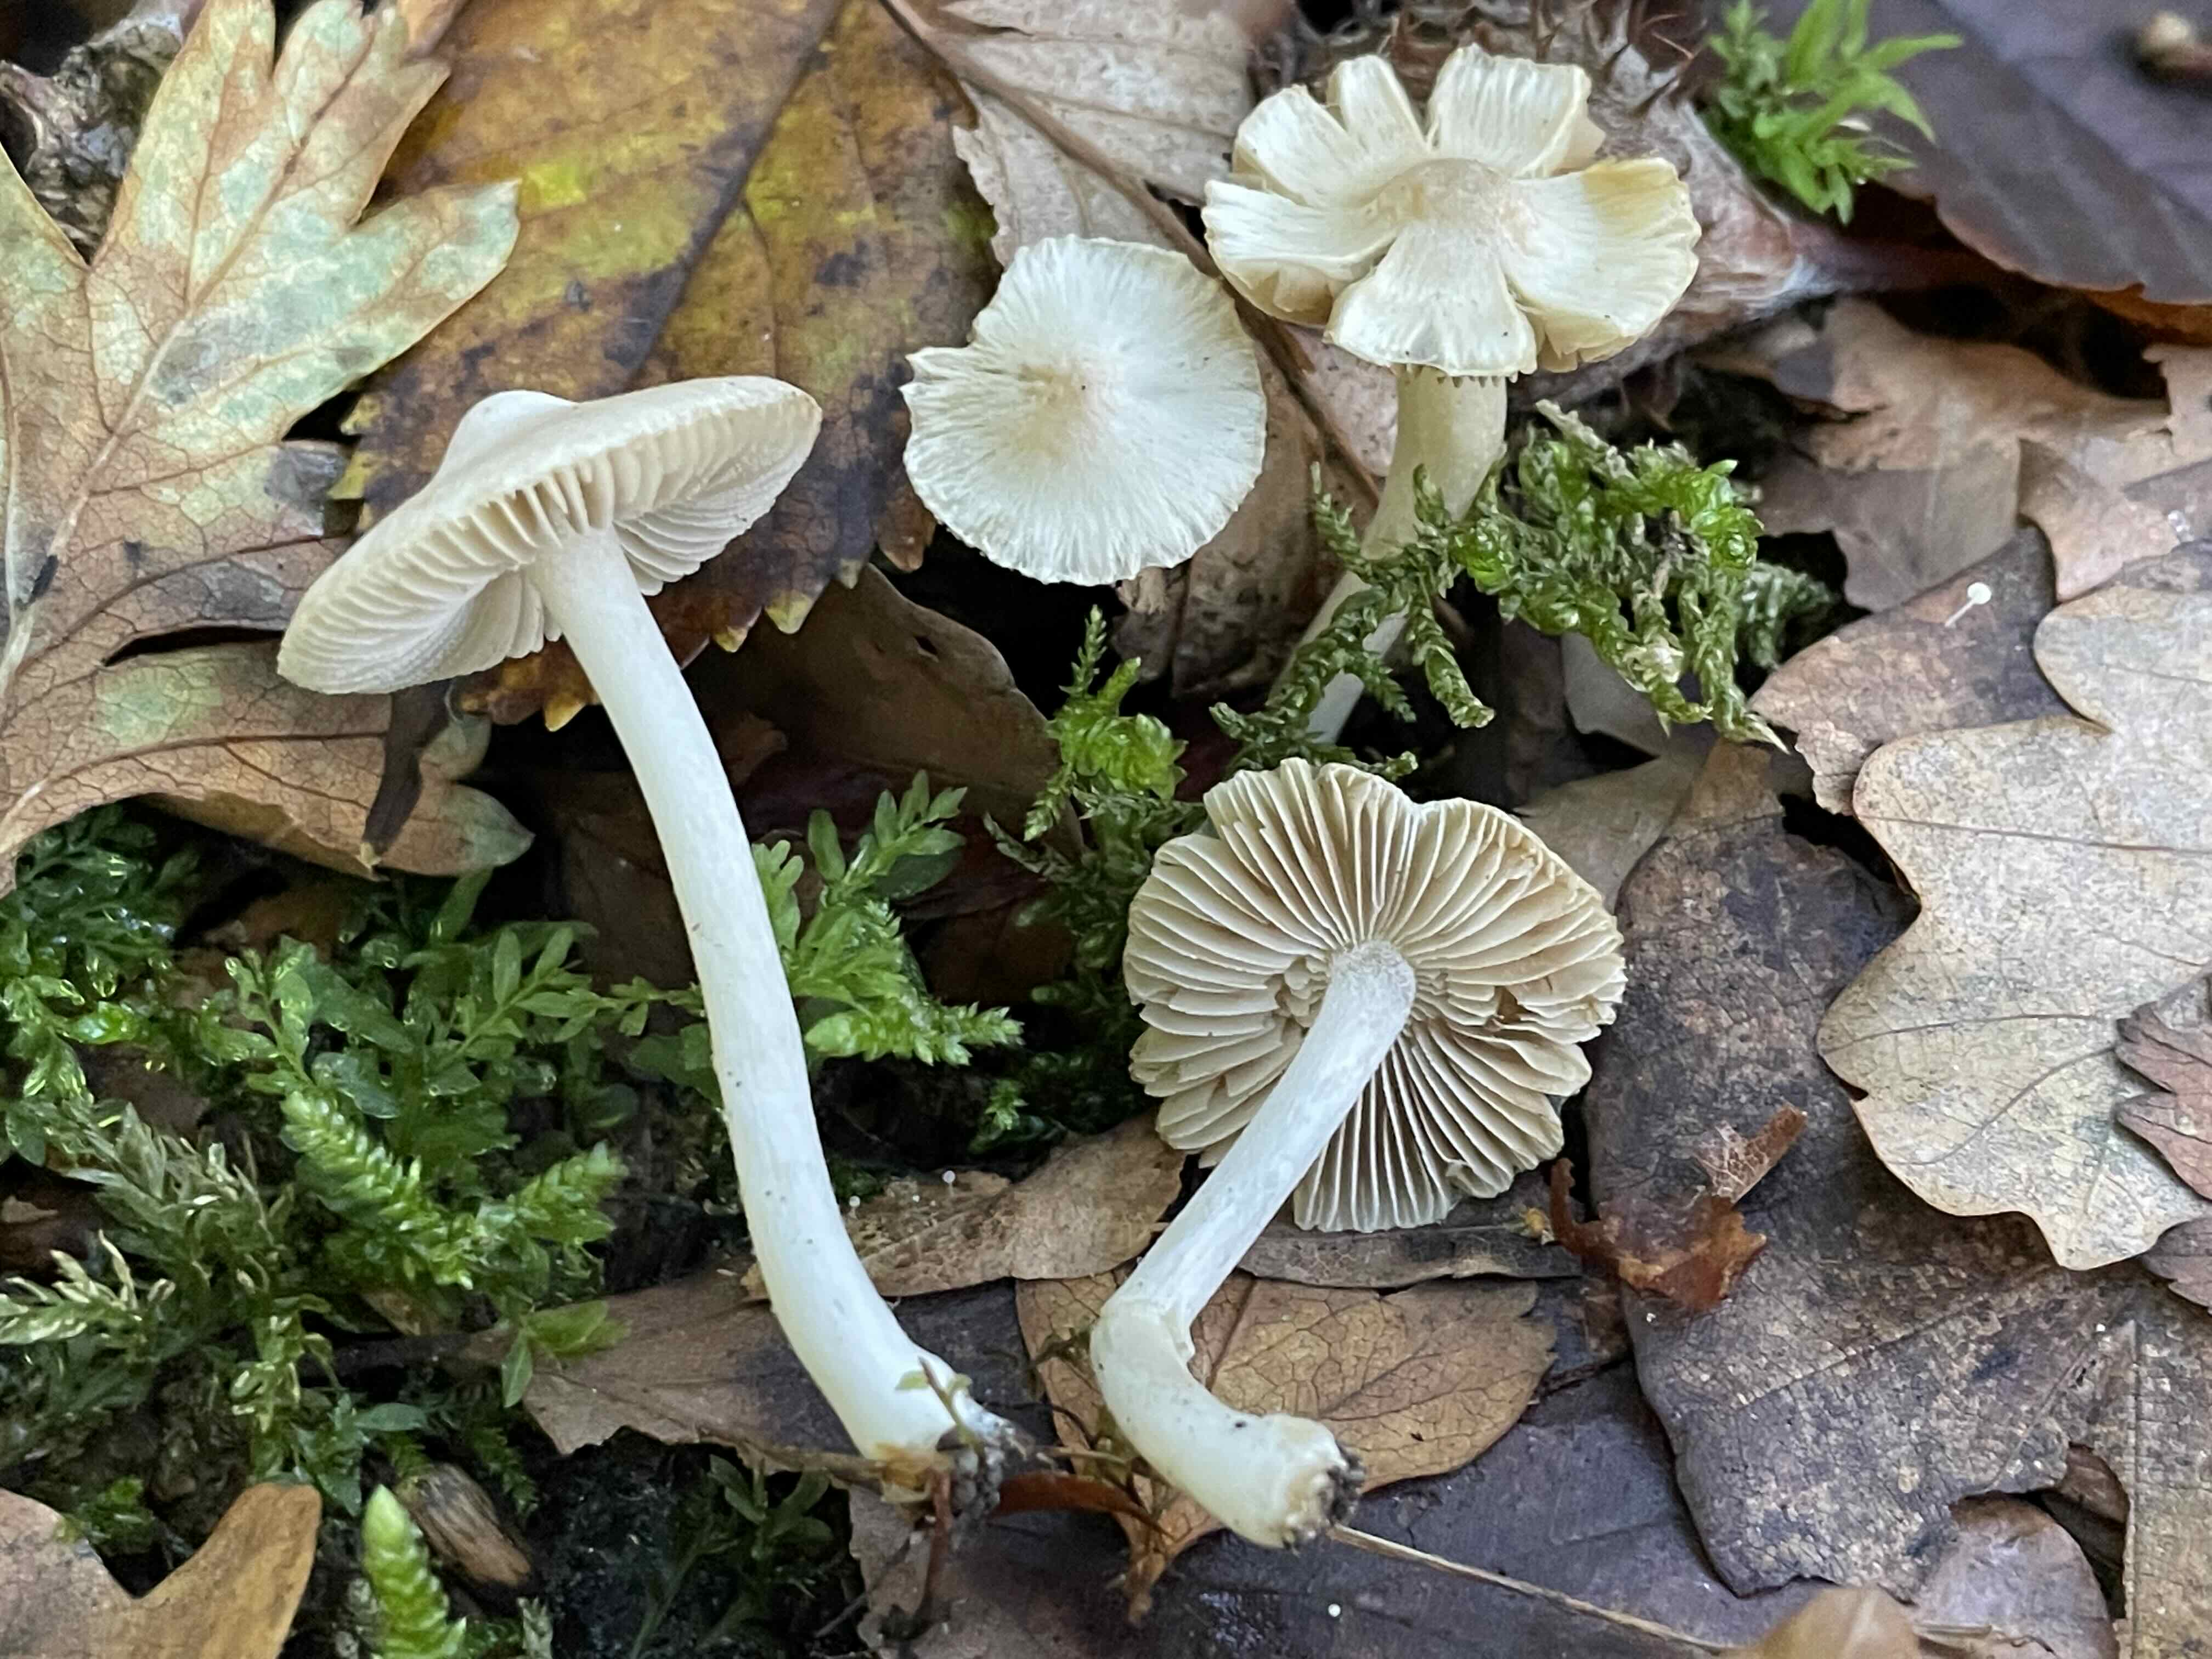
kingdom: Fungi
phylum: Basidiomycota
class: Agaricomycetes
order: Agaricales
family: Inocybaceae
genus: Inocybe
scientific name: Inocybe
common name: almindelig trævlhat
